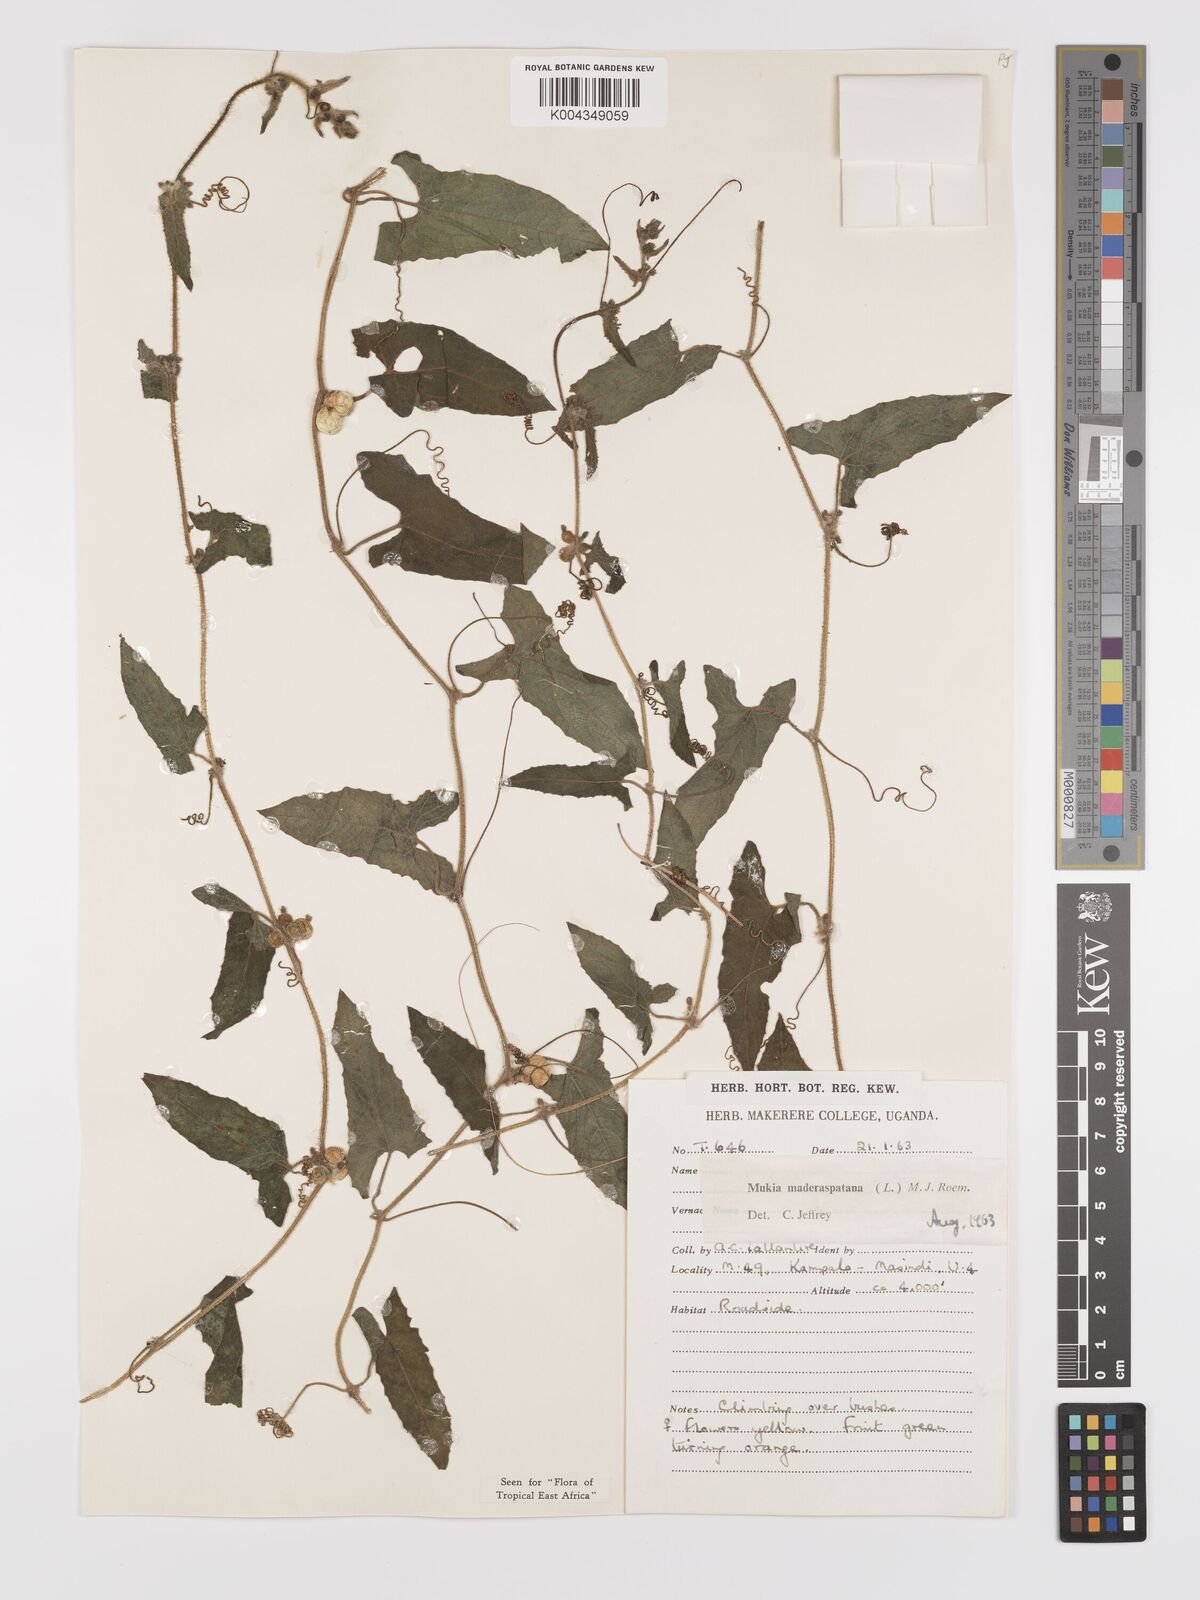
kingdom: Plantae
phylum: Tracheophyta
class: Magnoliopsida
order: Cucurbitales
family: Cucurbitaceae
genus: Cucumis
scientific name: Cucumis maderaspatanus
